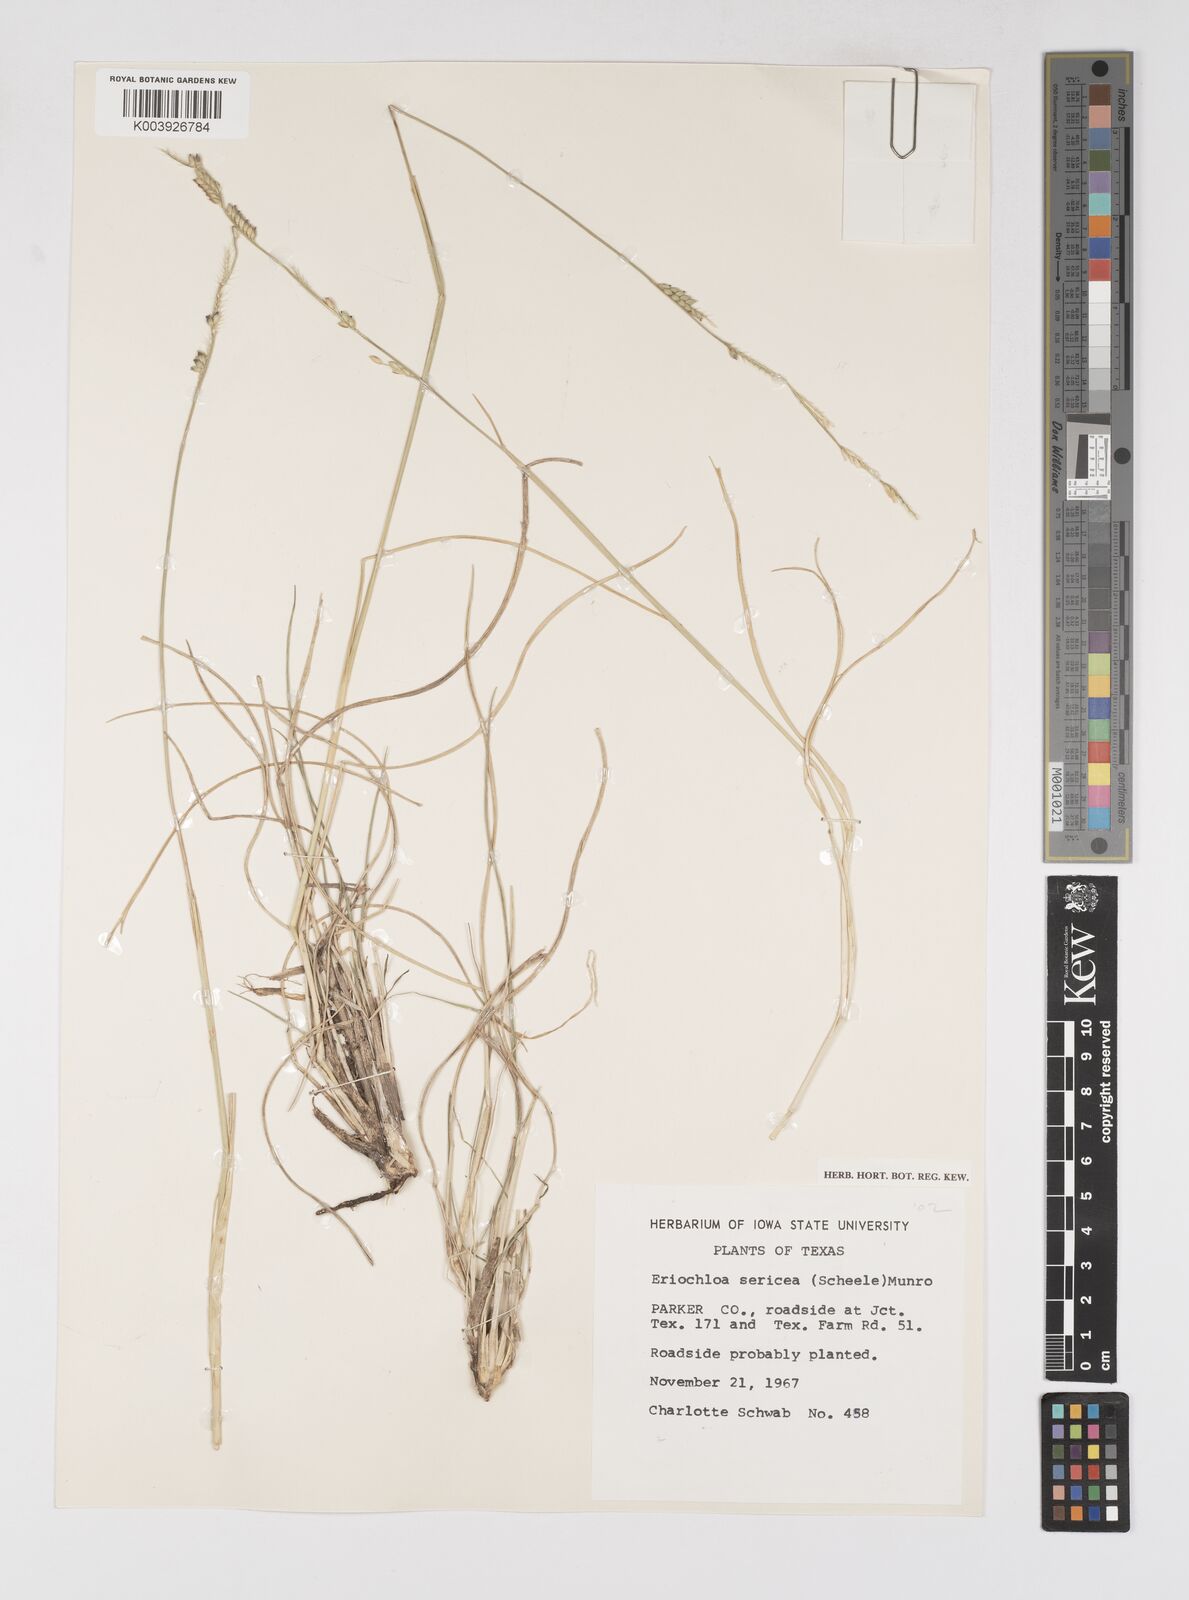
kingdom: Plantae
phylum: Tracheophyta
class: Liliopsida
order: Poales
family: Poaceae
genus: Eriochloa
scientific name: Eriochloa sericea
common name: Texas cup grass
